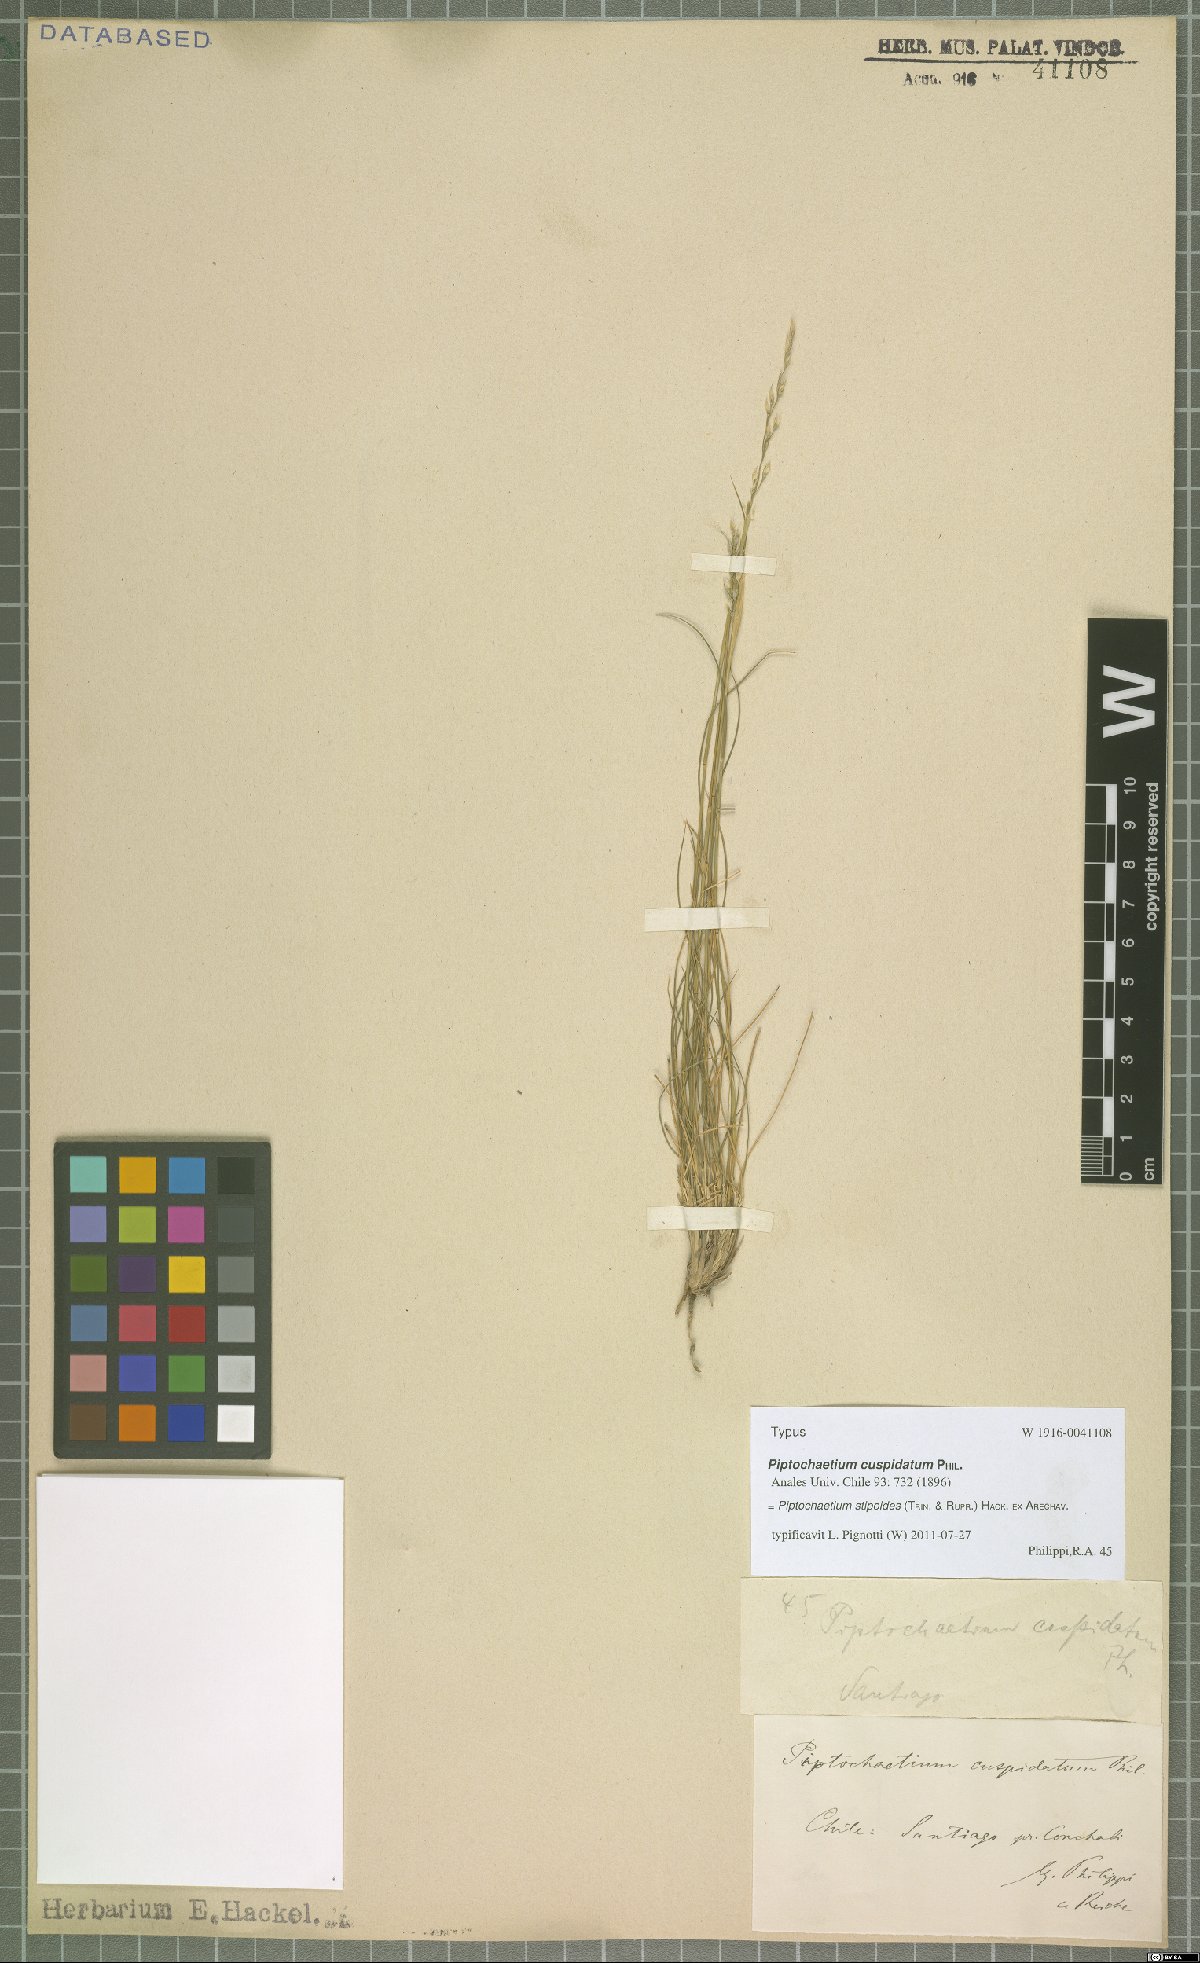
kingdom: Plantae
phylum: Tracheophyta
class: Liliopsida
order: Poales
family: Poaceae
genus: Piptochaetium
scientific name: Piptochaetium stipoides
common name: Purple speargrass
